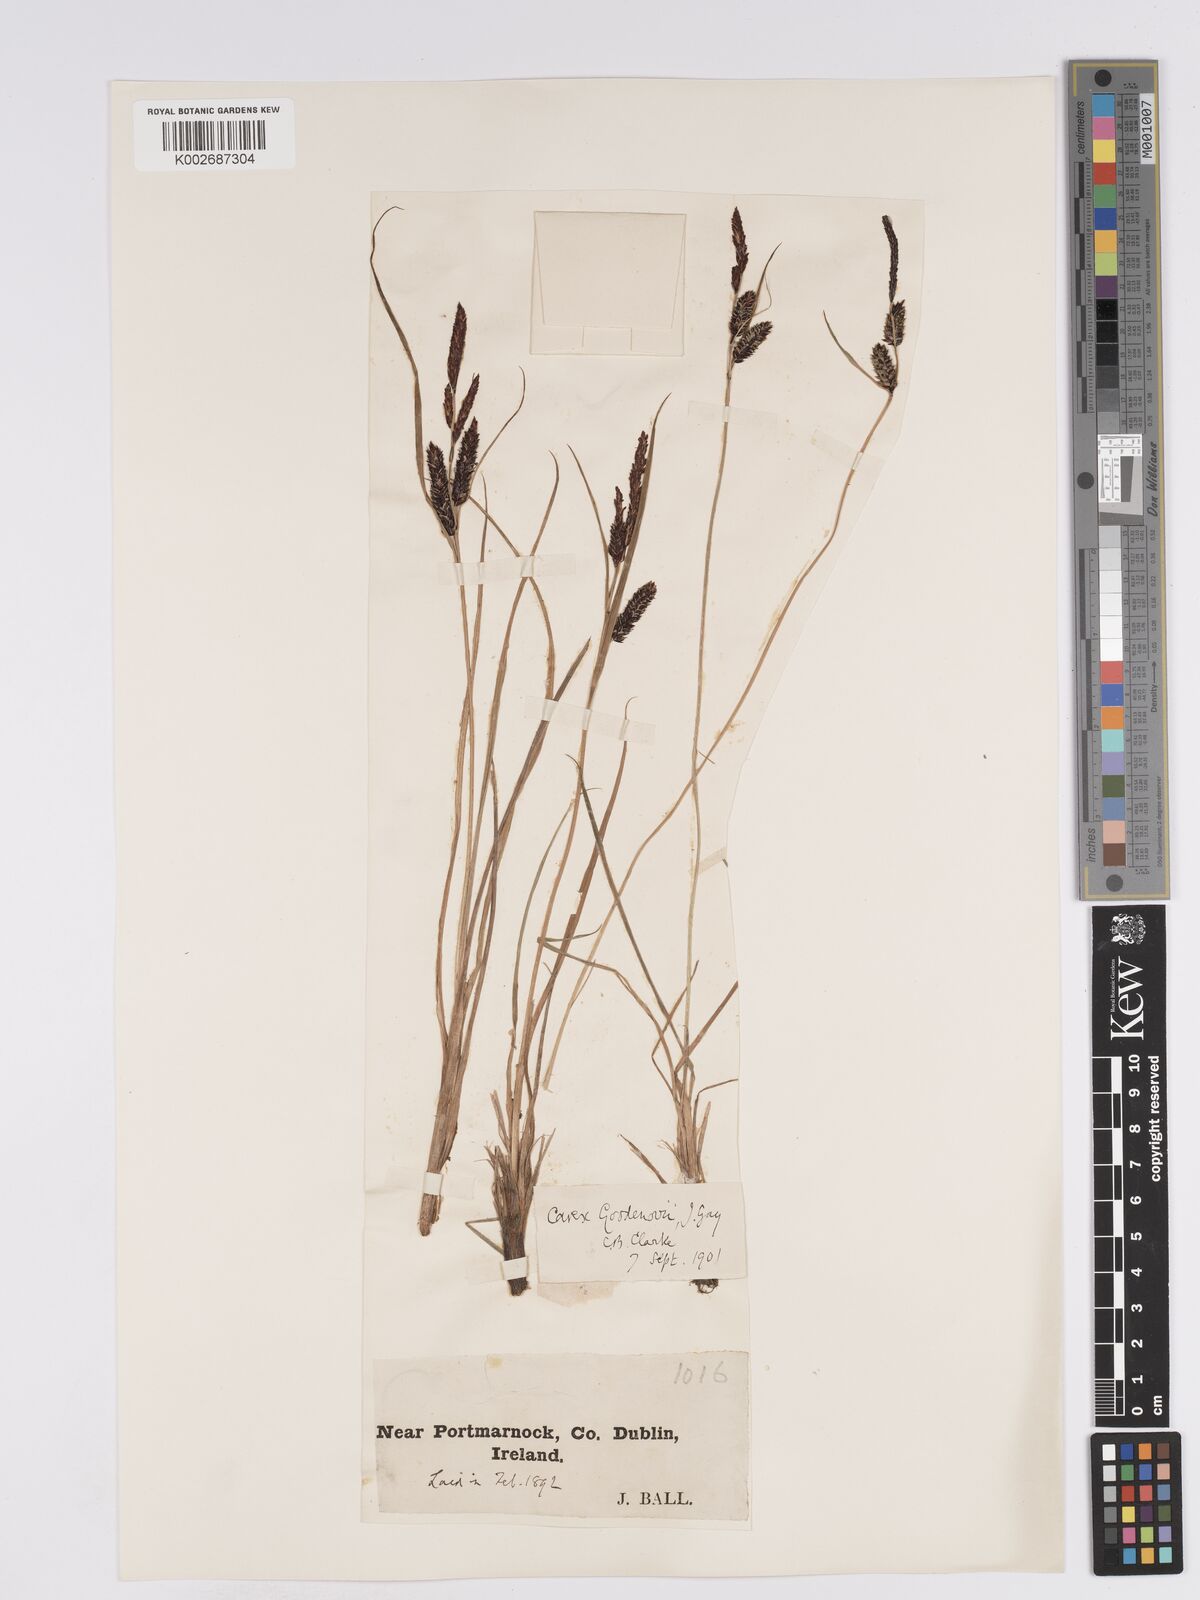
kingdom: Plantae
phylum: Tracheophyta
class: Liliopsida
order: Poales
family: Cyperaceae
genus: Carex
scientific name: Carex nigra
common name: Common sedge
